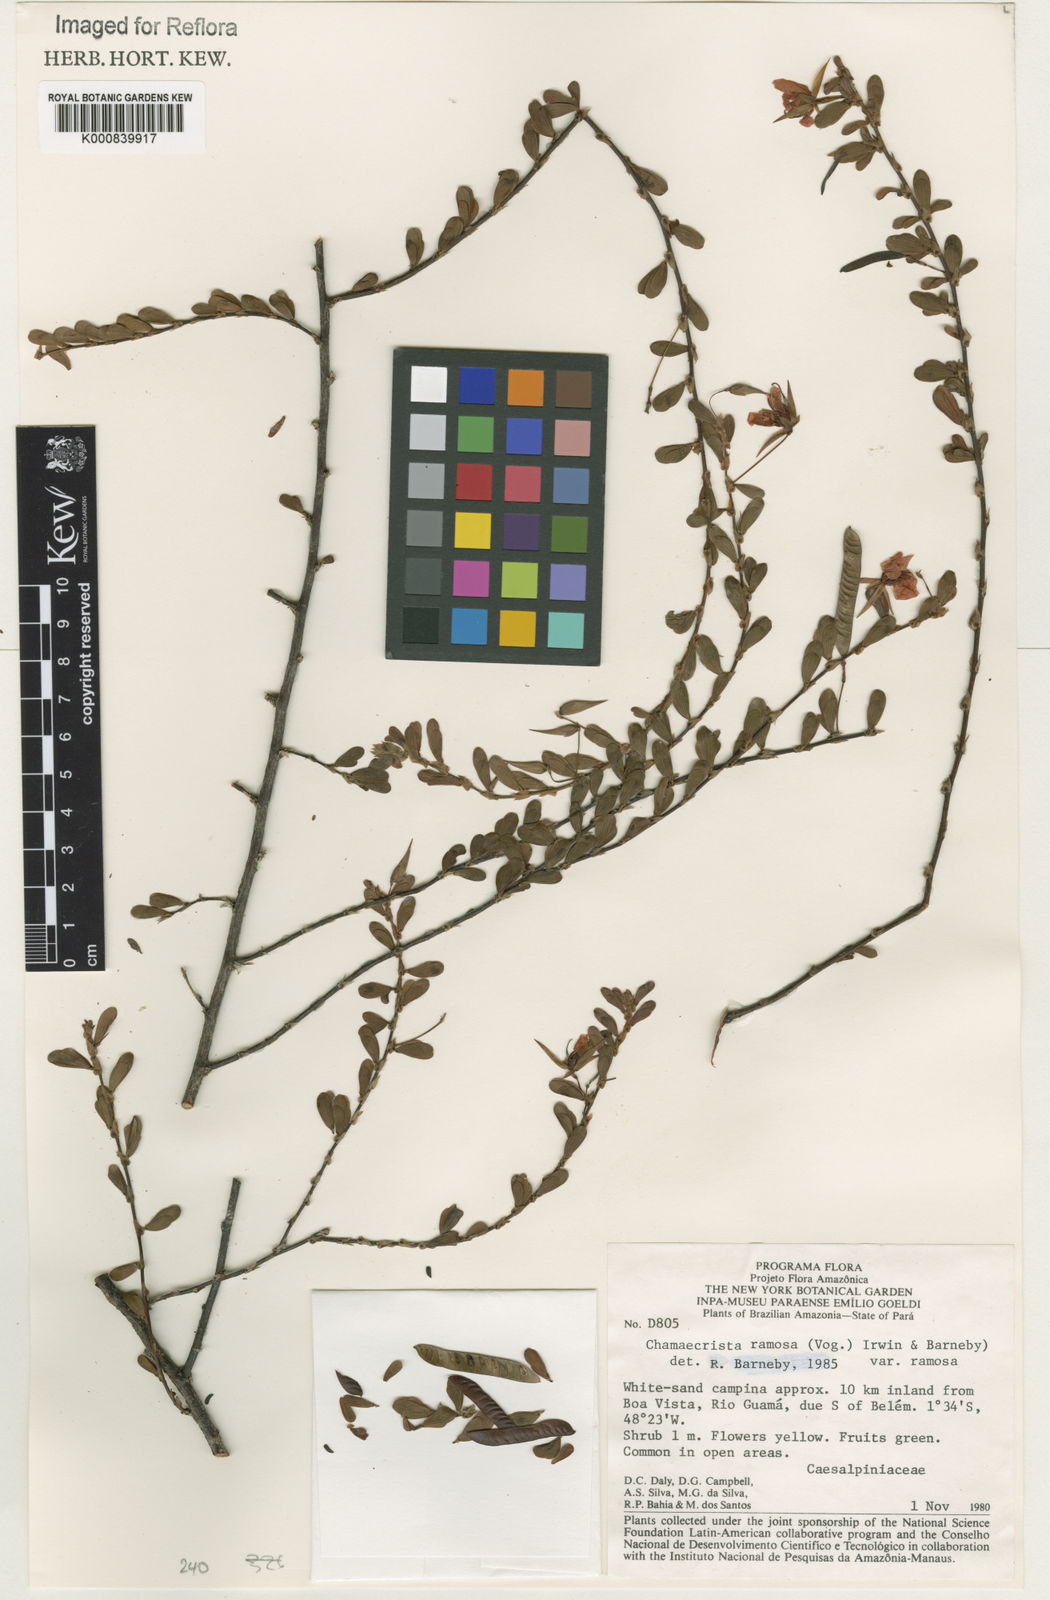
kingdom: Plantae
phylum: Tracheophyta
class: Magnoliopsida
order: Fabales
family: Fabaceae
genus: Chamaecrista
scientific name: Chamaecrista ramosa
